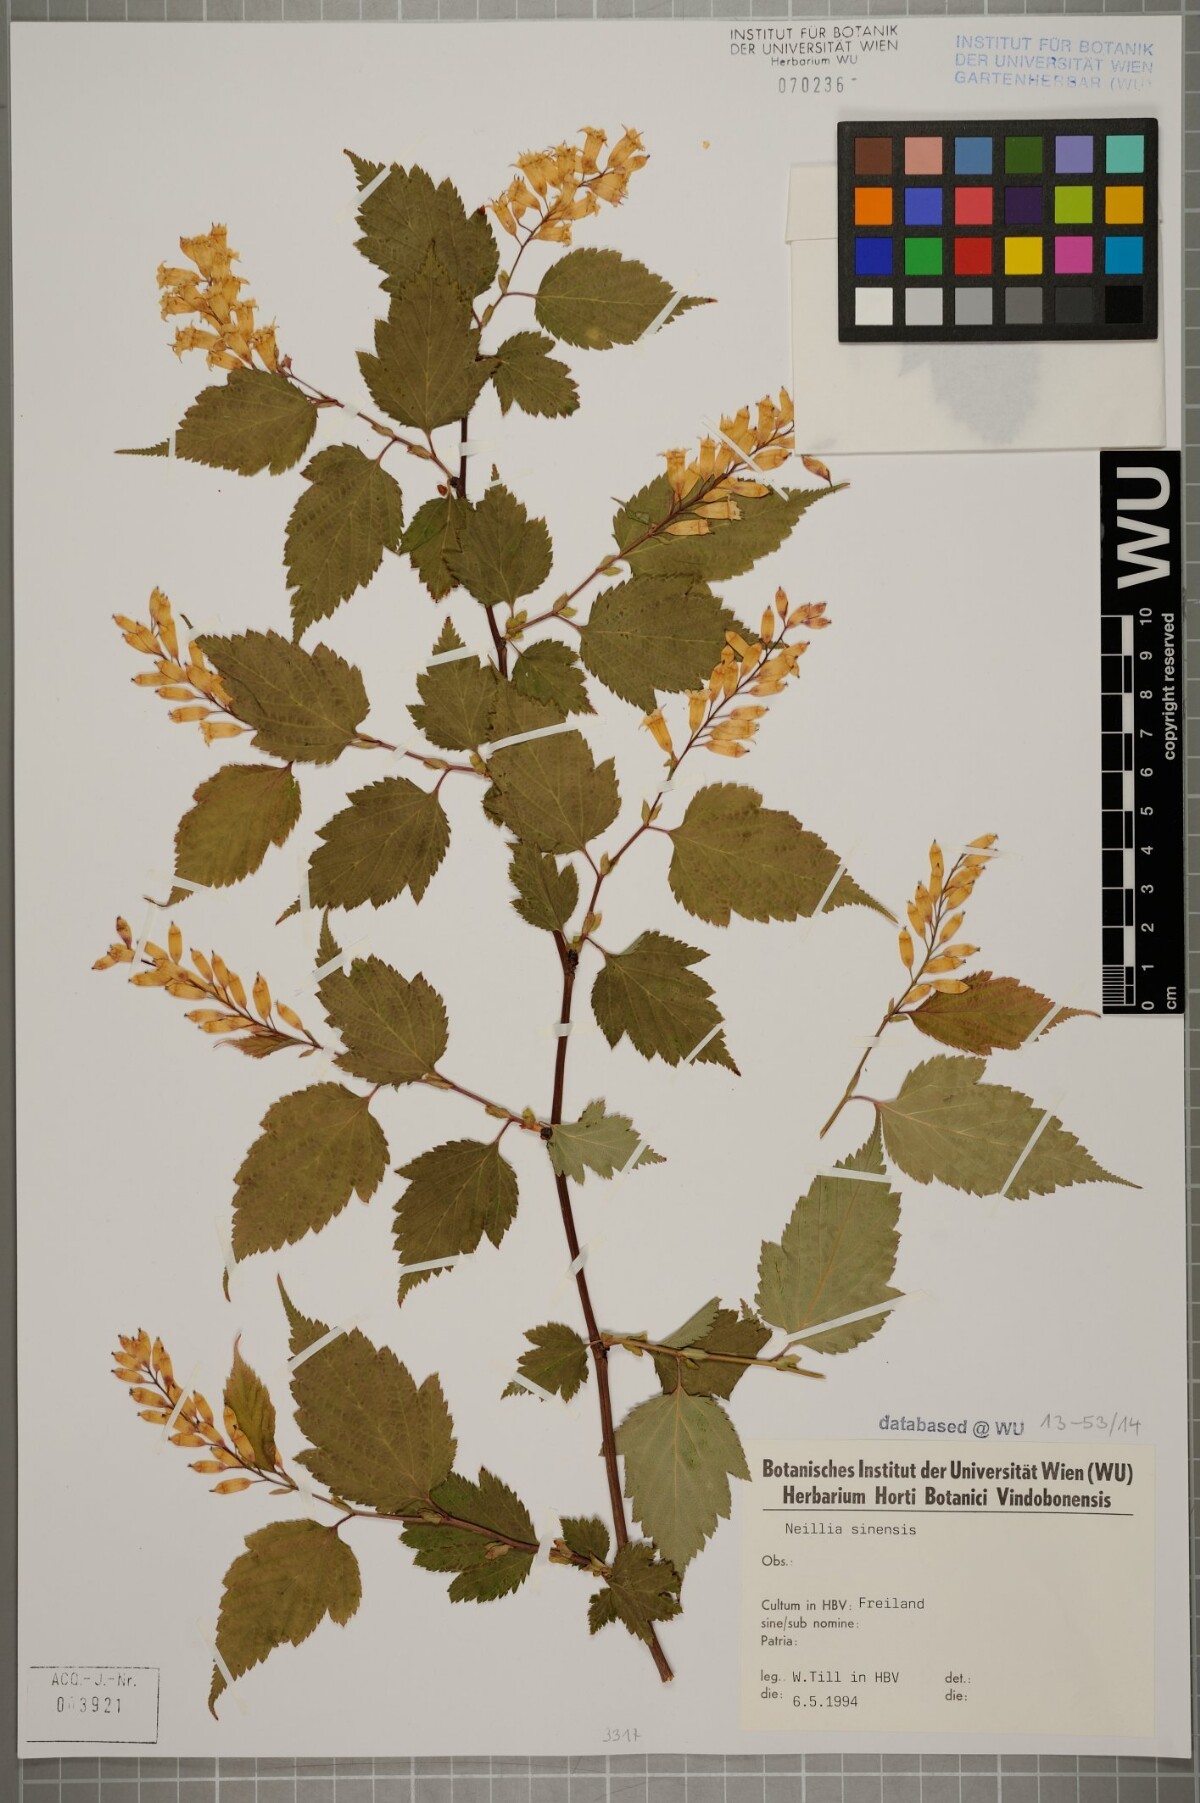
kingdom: Plantae
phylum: Tracheophyta
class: Magnoliopsida
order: Rosales
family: Rosaceae
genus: Neillia
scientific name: Neillia sinensis
